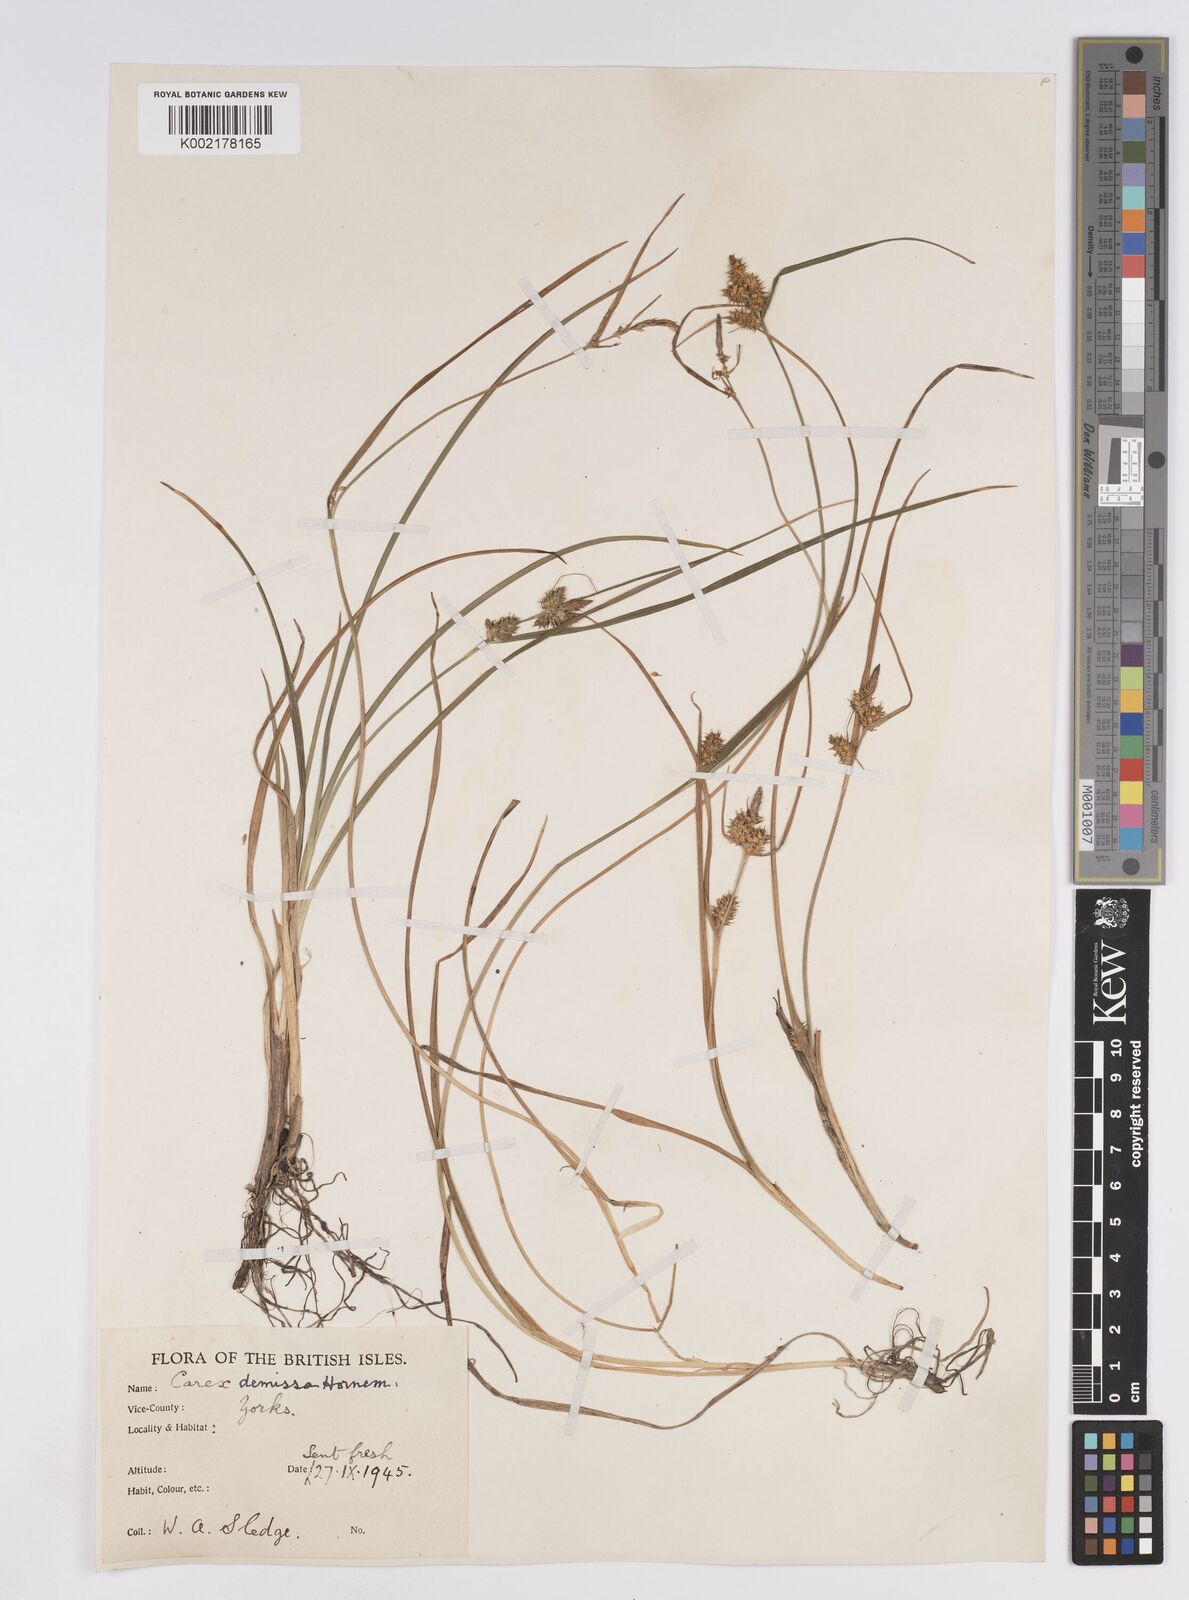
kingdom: Plantae
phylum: Tracheophyta
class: Liliopsida
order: Poales
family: Cyperaceae
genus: Carex
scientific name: Carex demissa
